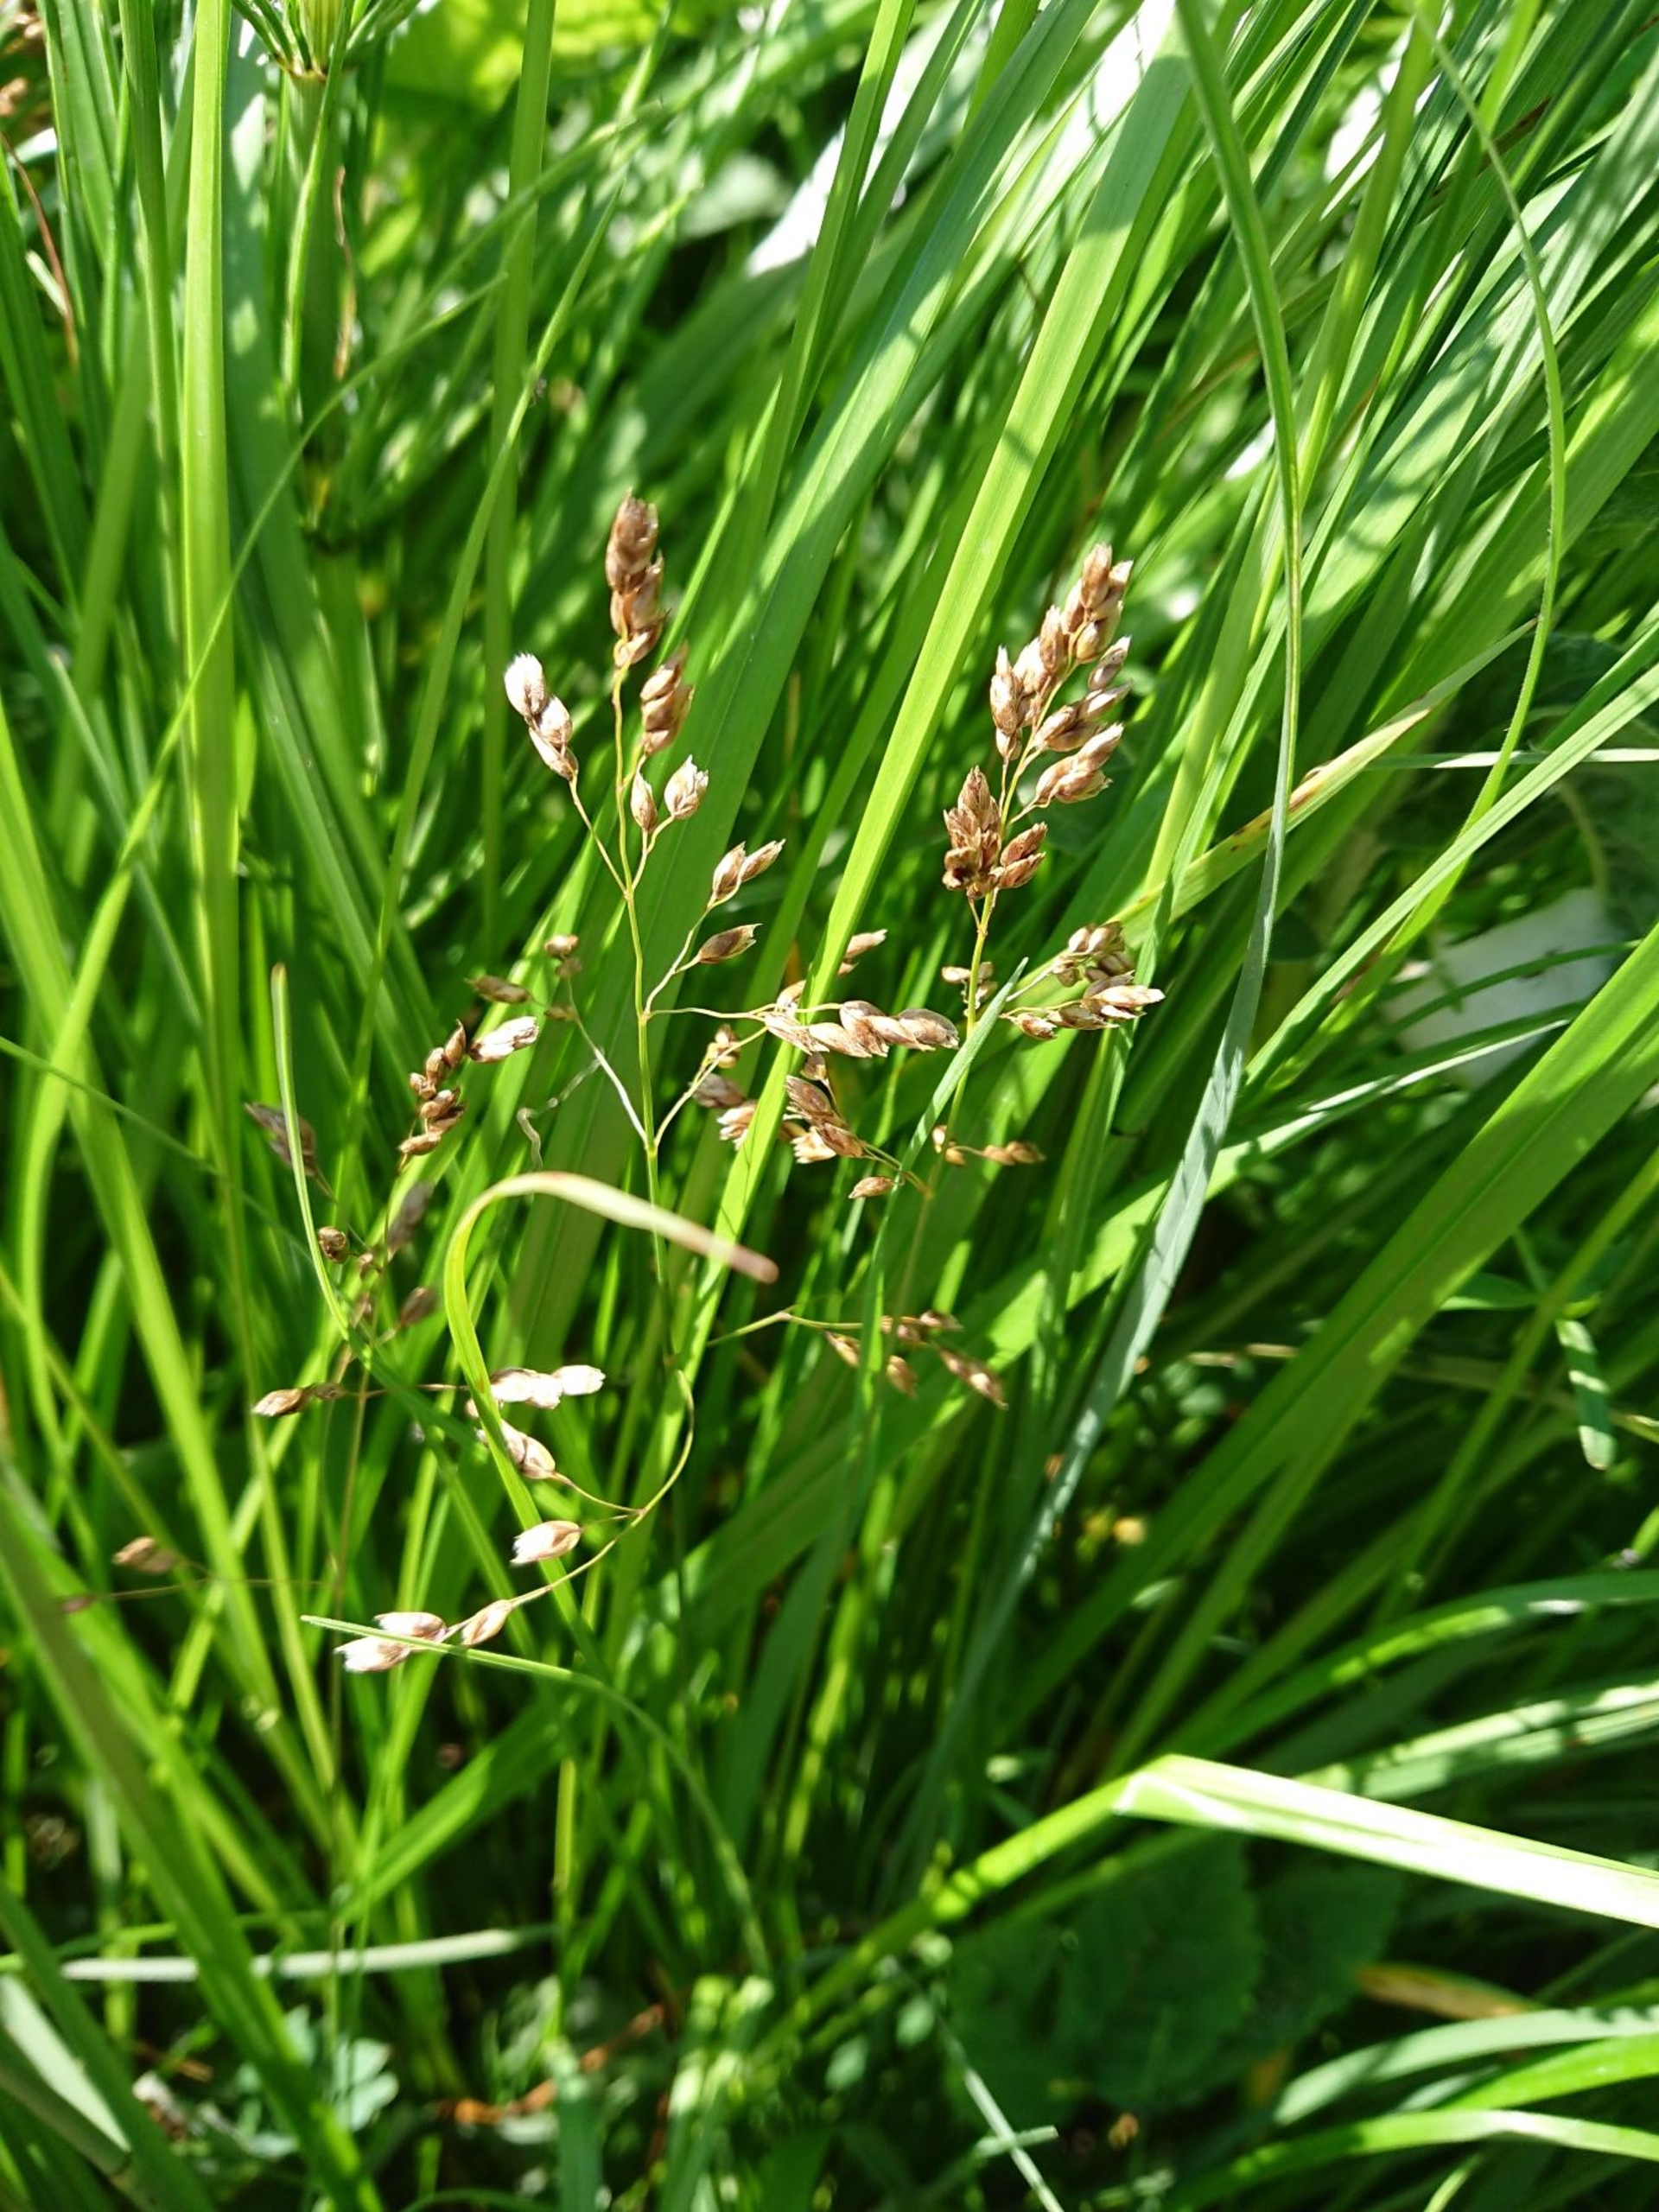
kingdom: Plantae
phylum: Tracheophyta
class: Liliopsida
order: Poales
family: Poaceae
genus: Anthoxanthum
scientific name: Anthoxanthum nitens
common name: Festgræs
